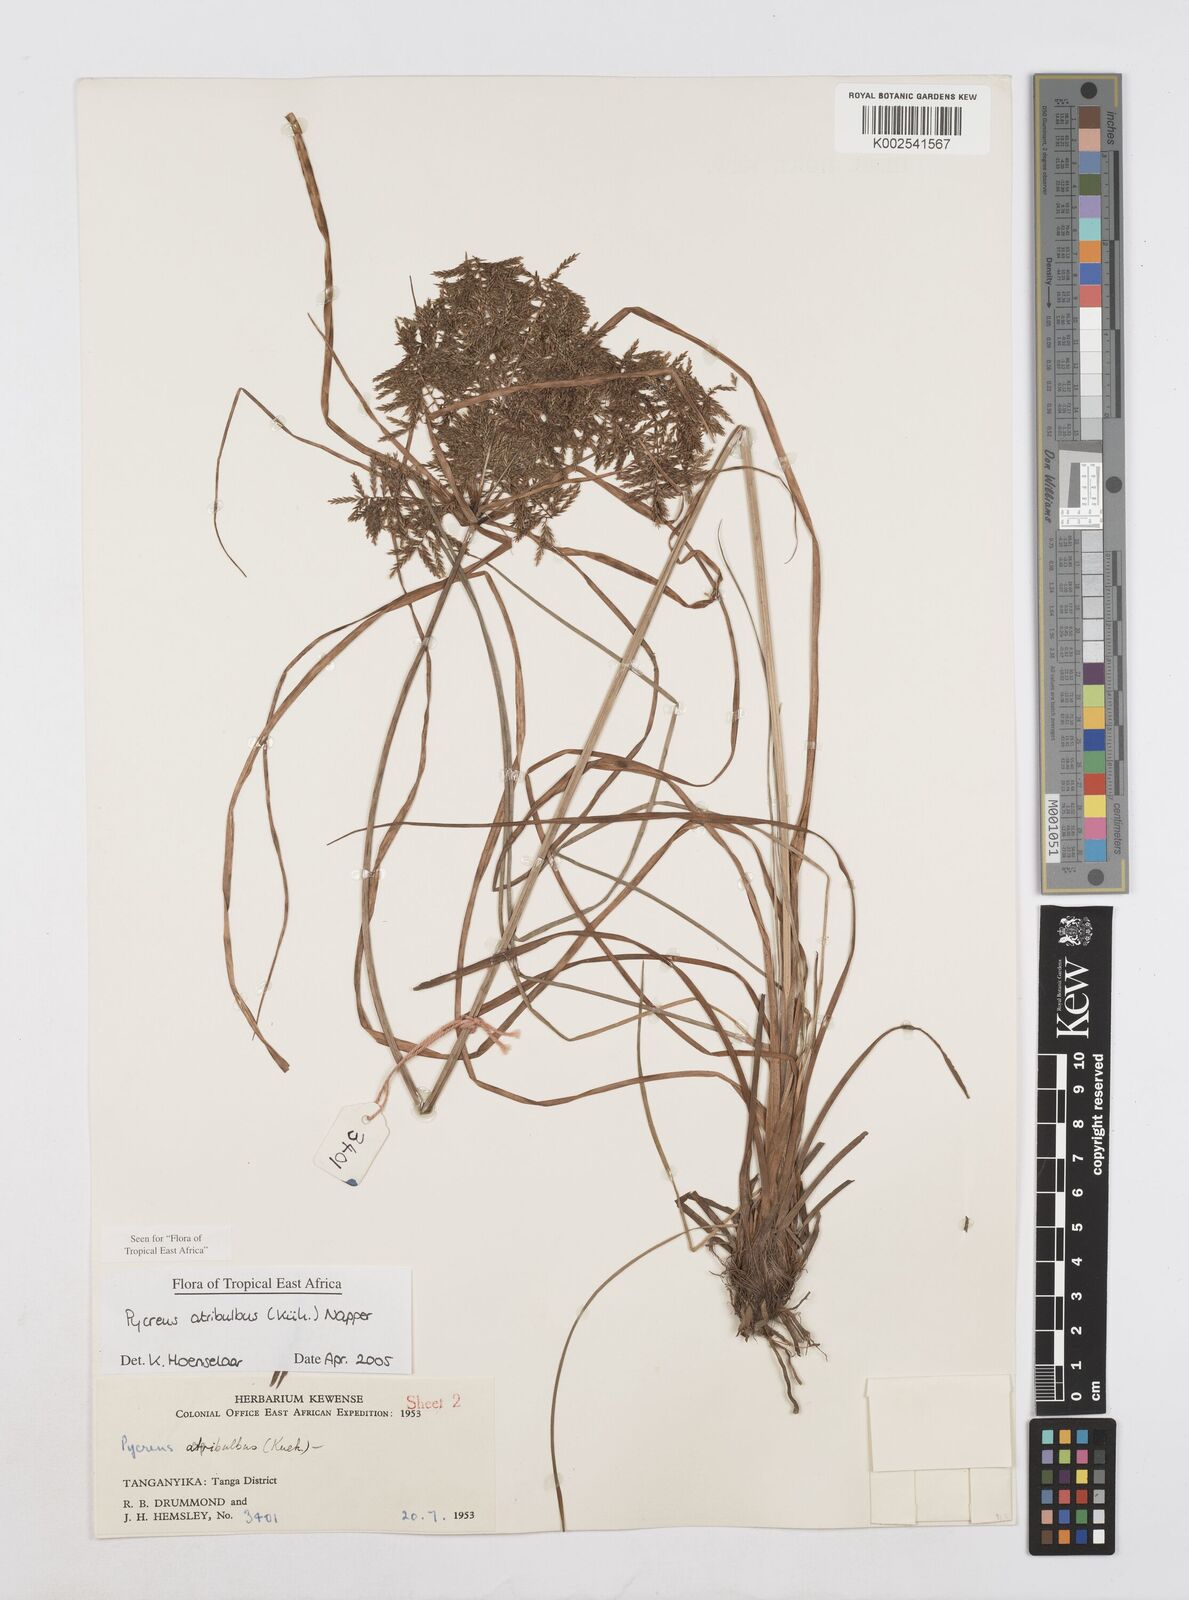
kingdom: Plantae
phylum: Tracheophyta
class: Liliopsida
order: Poales
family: Cyperaceae
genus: Cyperus
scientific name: Cyperus intactus
